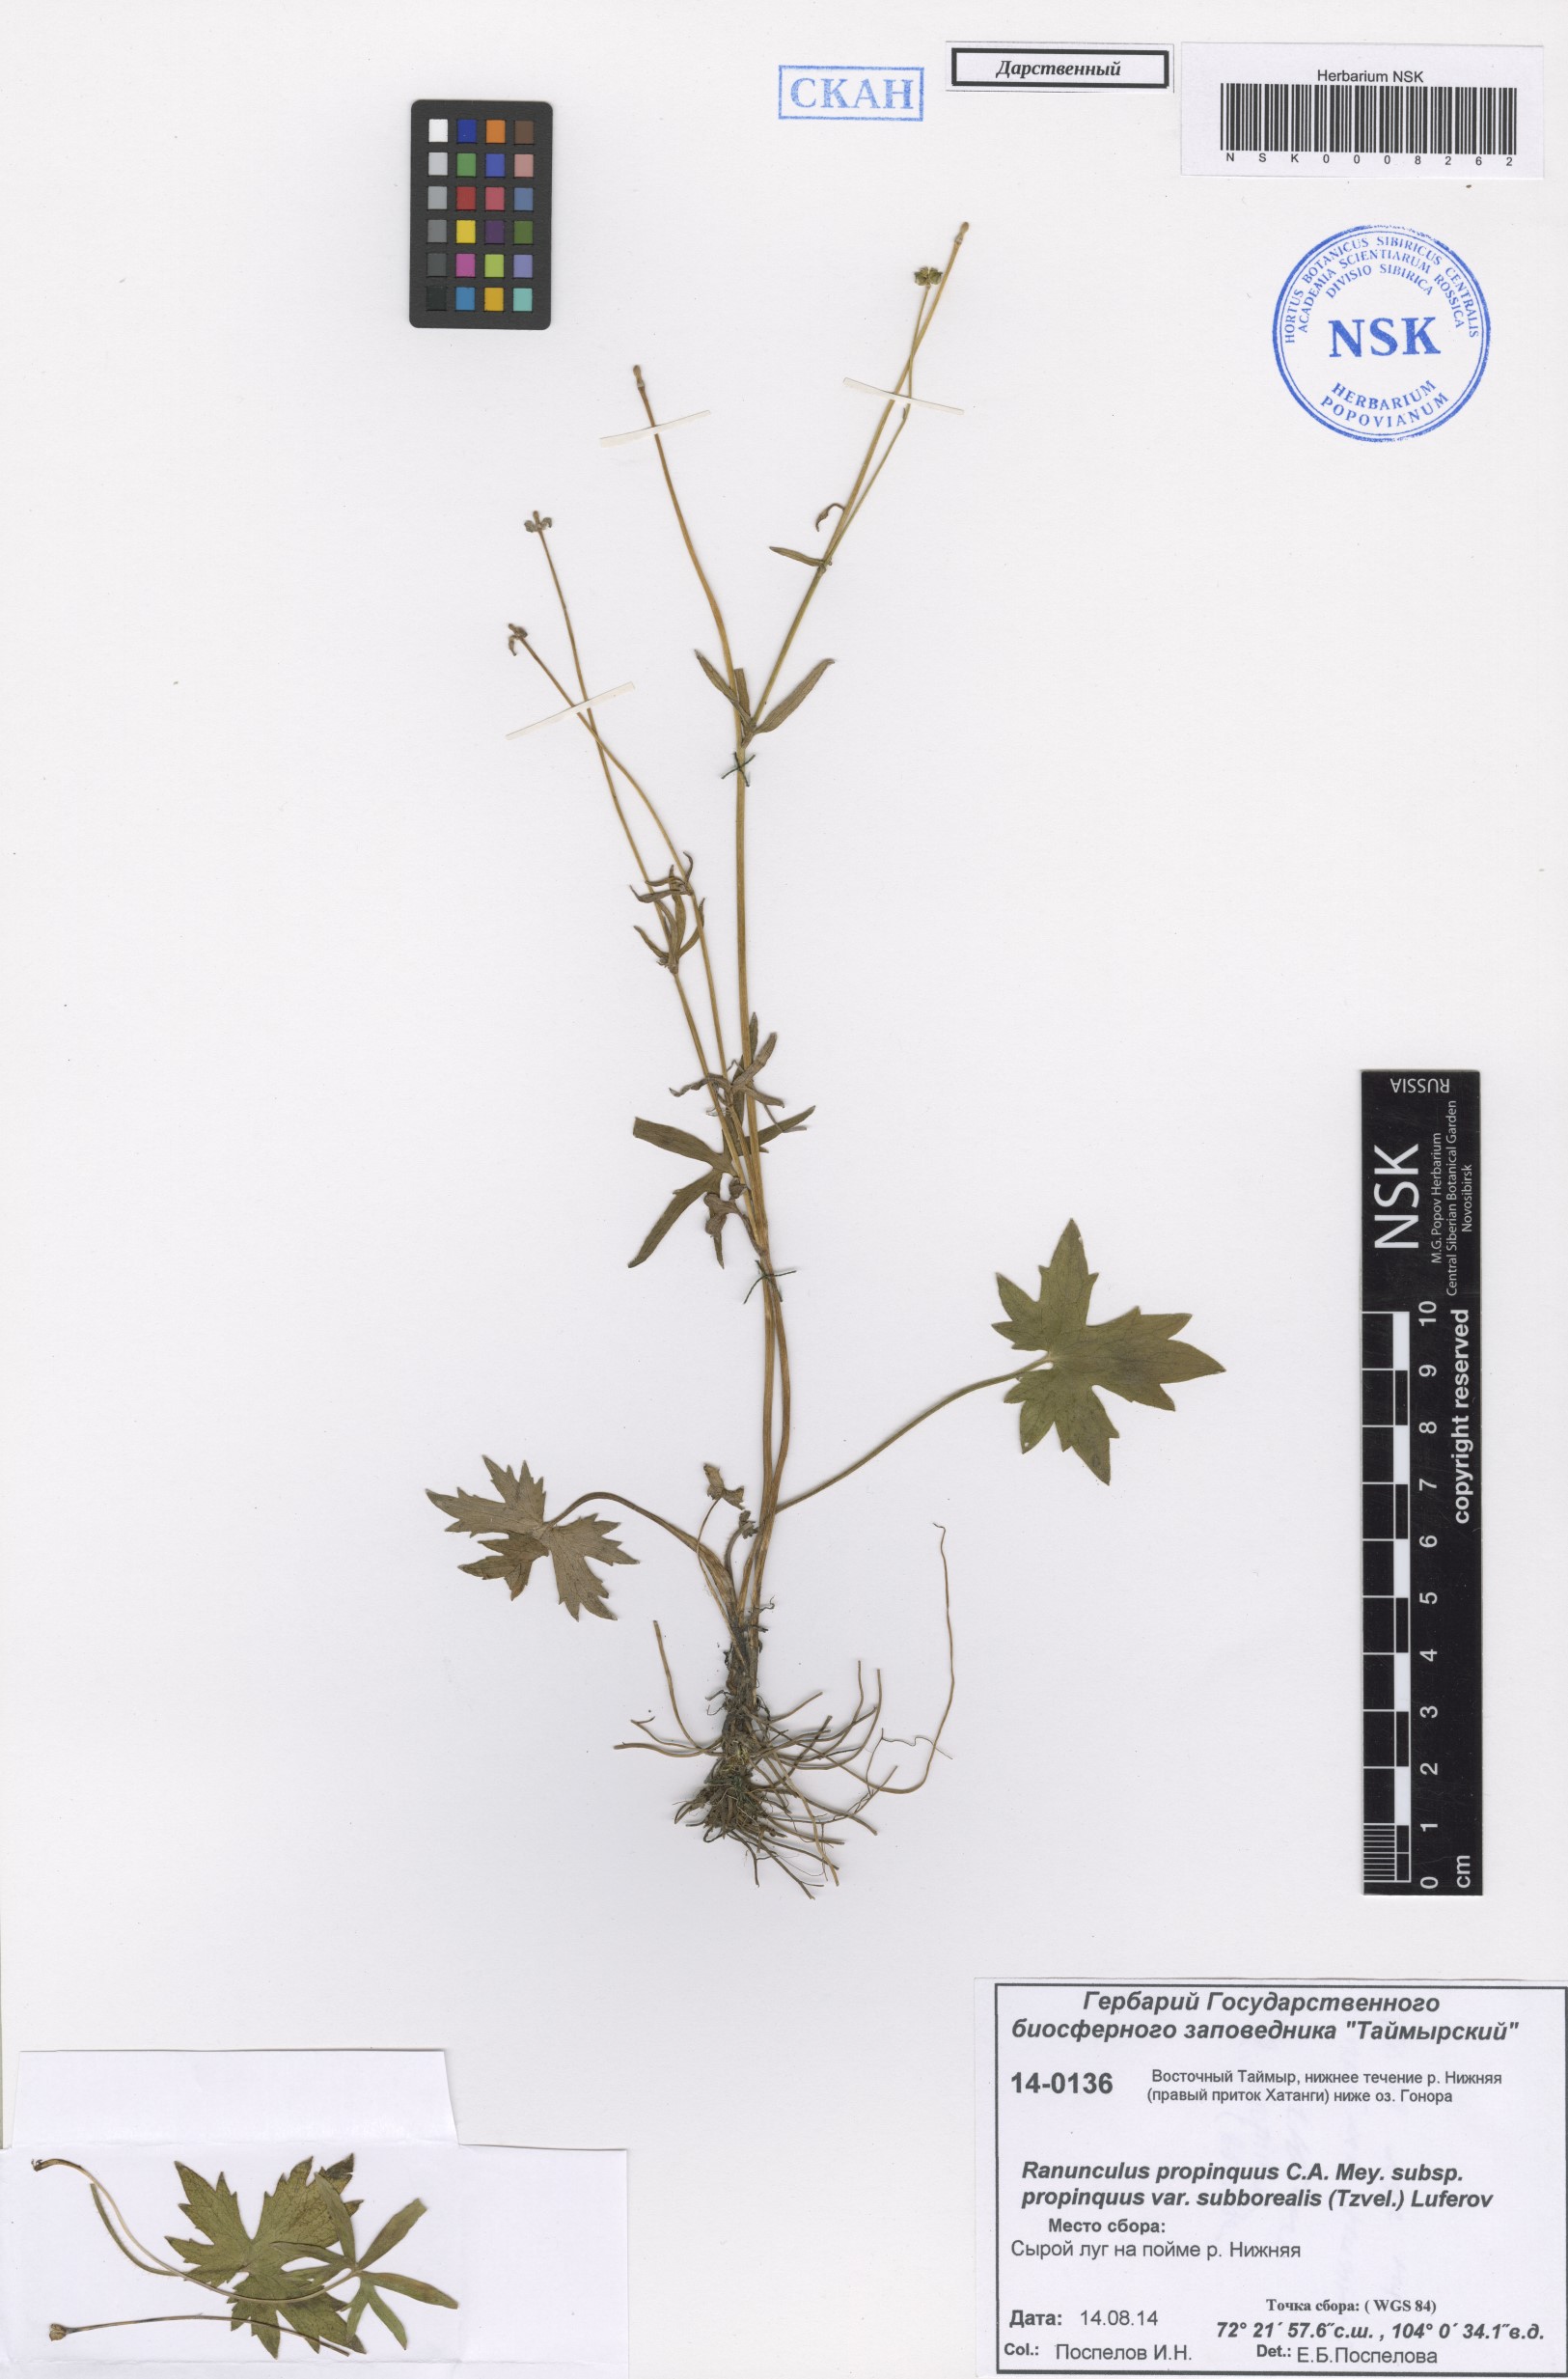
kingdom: Plantae
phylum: Tracheophyta
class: Magnoliopsida
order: Ranunculales
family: Ranunculaceae
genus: Ranunculus
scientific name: Ranunculus propinquus
